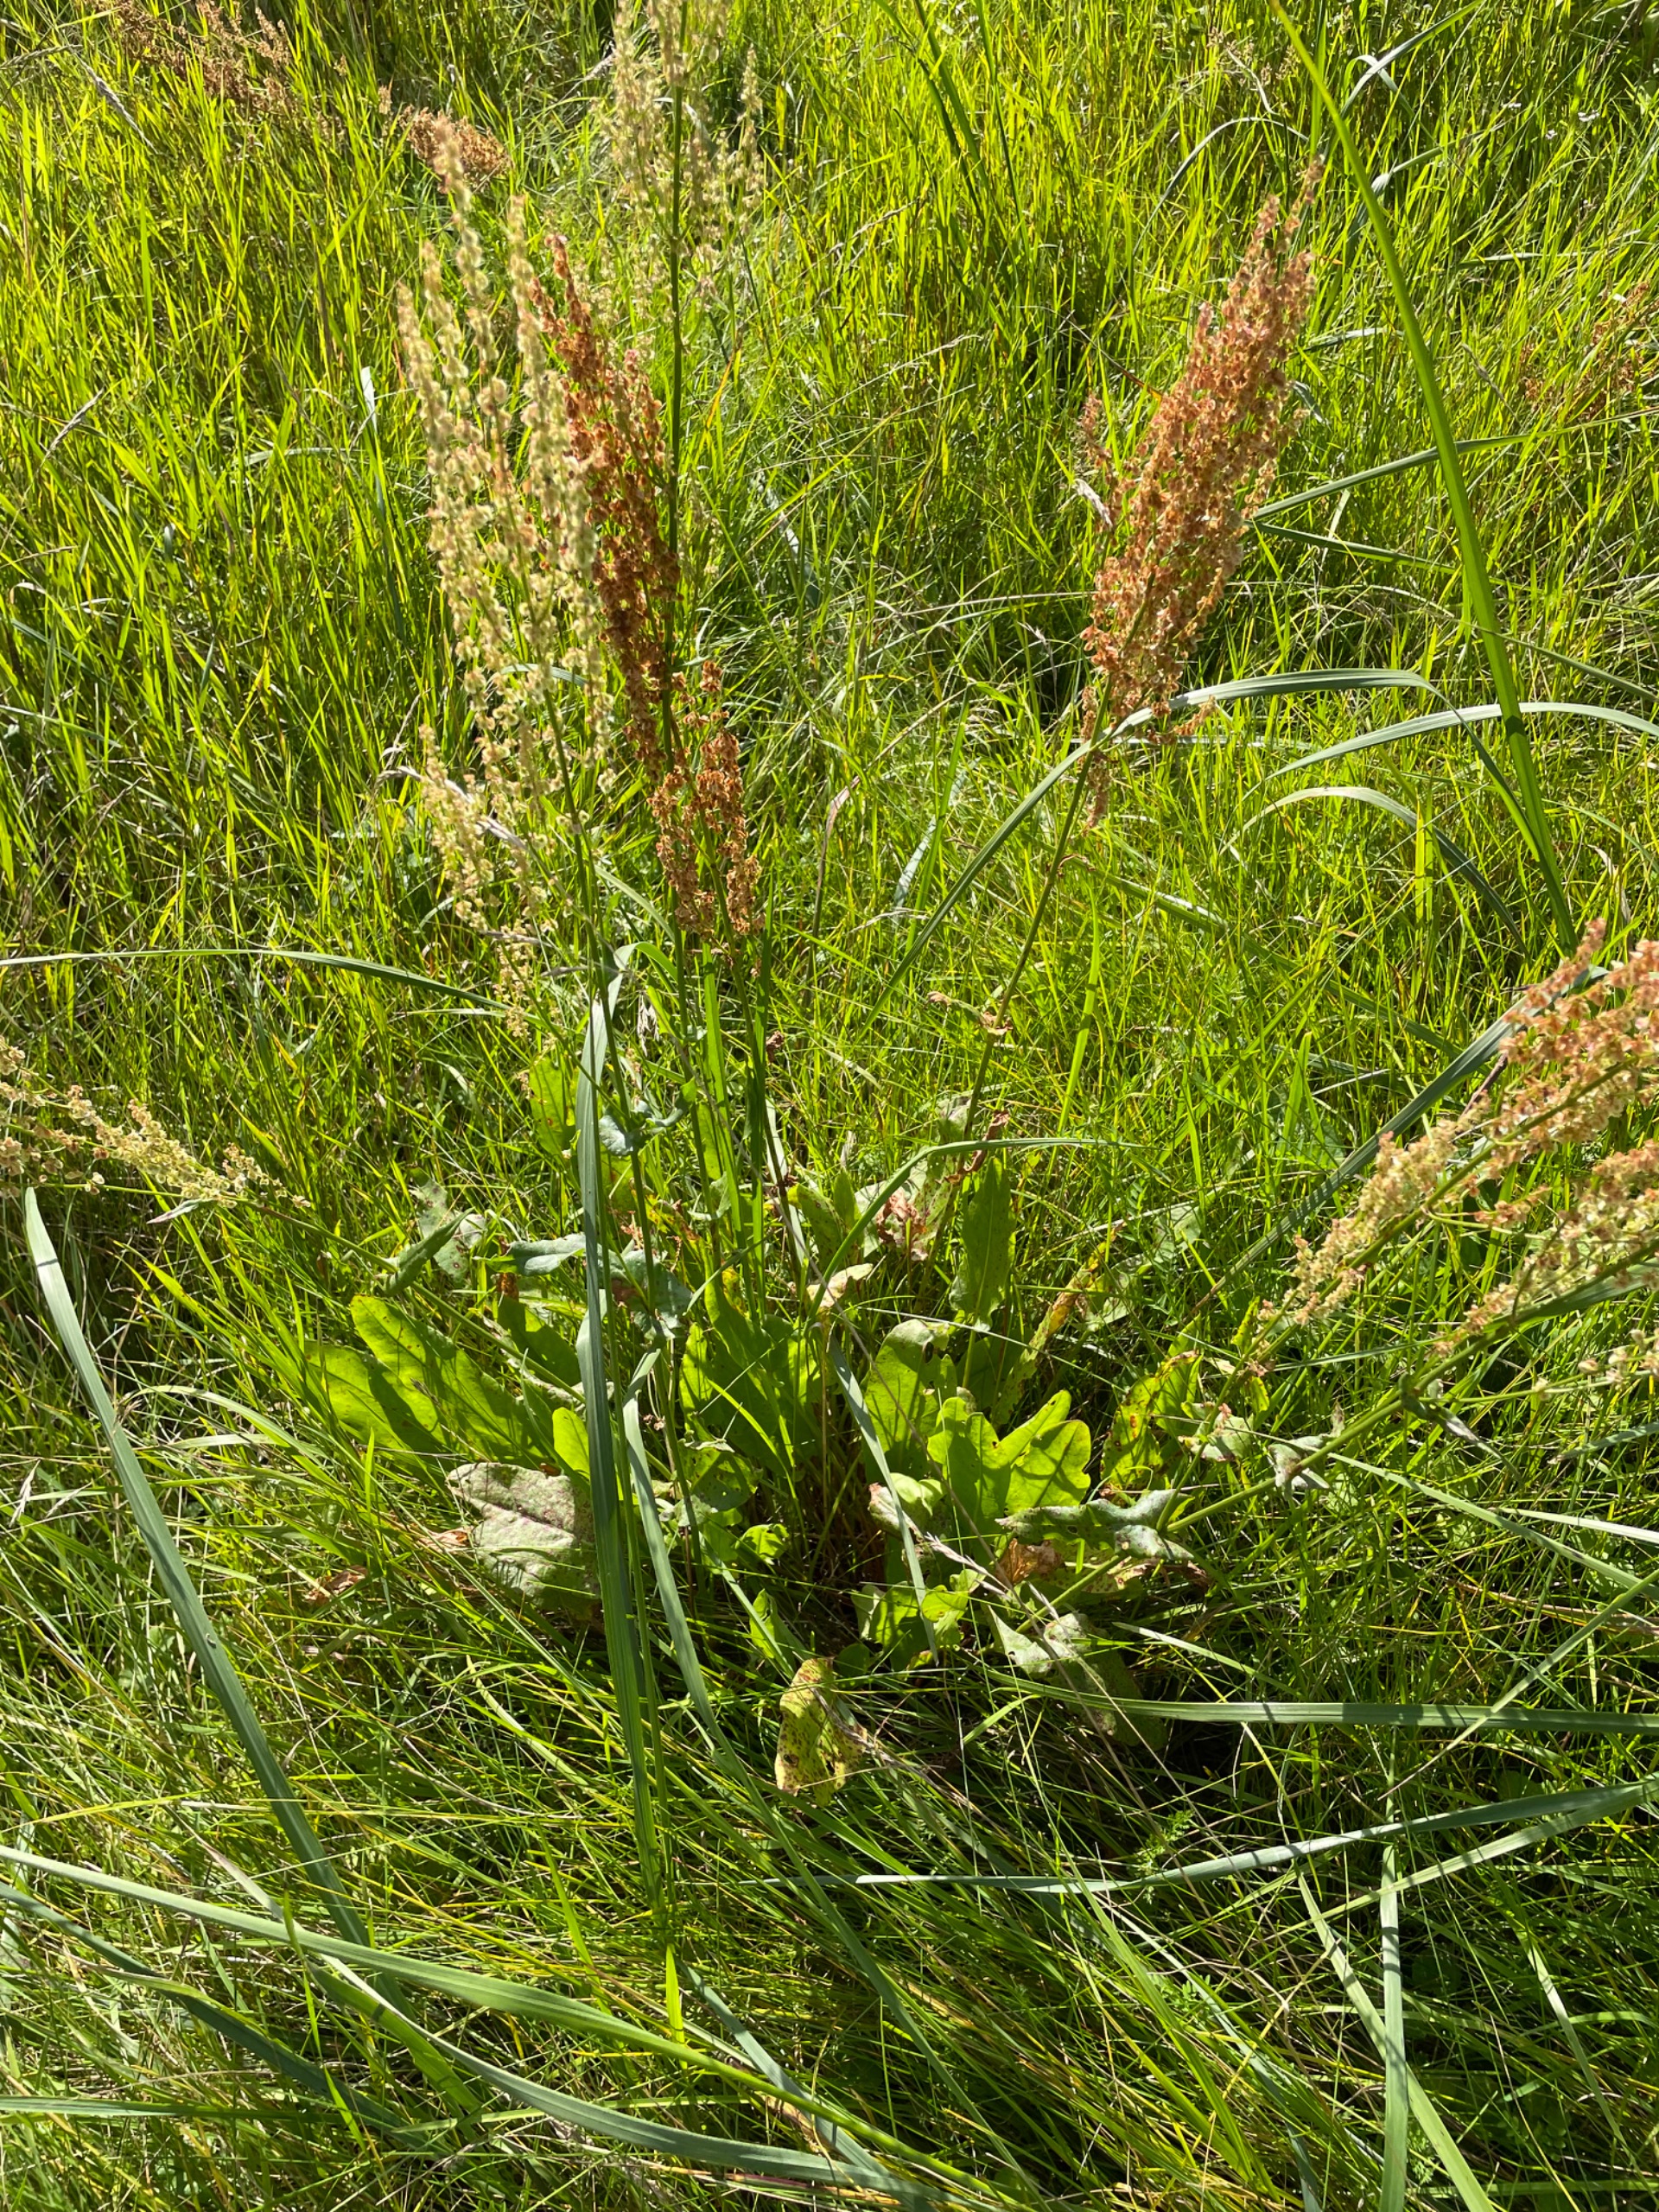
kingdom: Plantae
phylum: Tracheophyta
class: Magnoliopsida
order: Caryophyllales
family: Polygonaceae
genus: Rumex
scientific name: Rumex thyrsiflorus
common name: Dusk-syre
